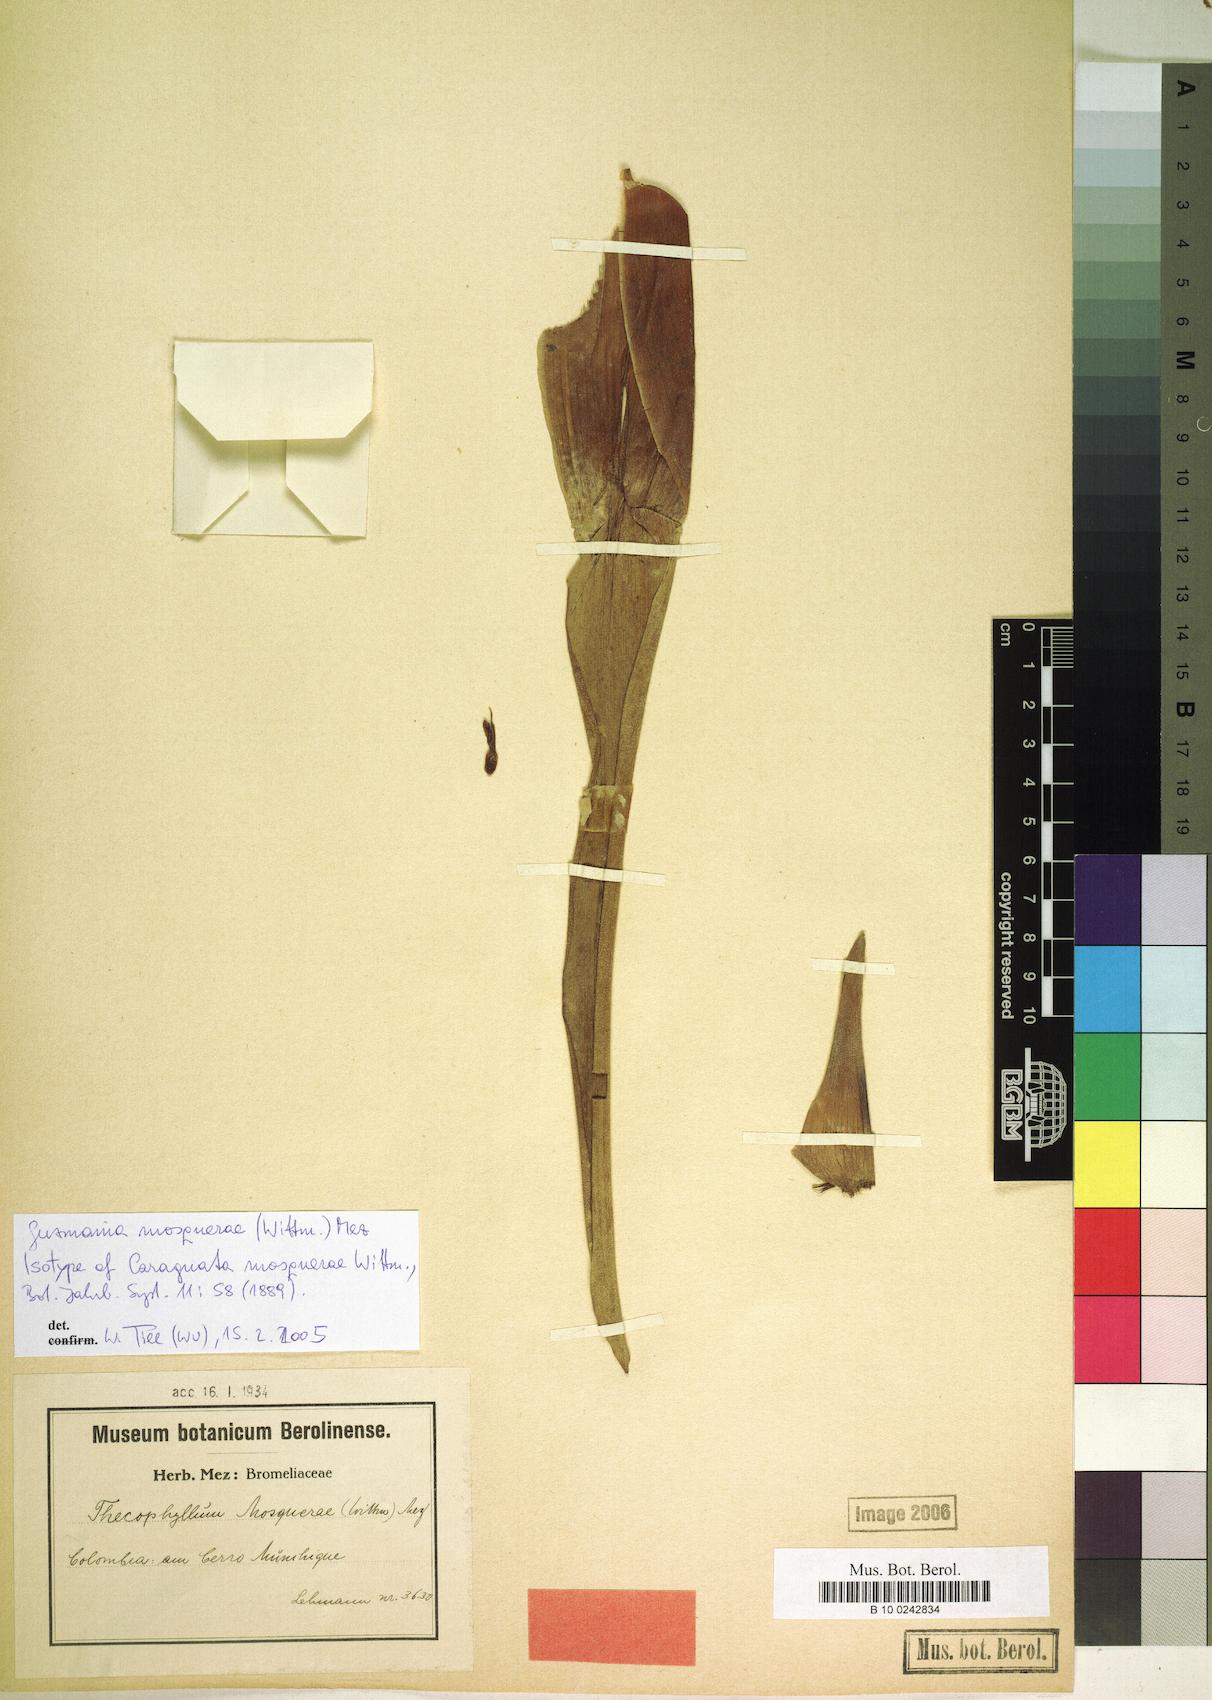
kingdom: Plantae
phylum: Tracheophyta
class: Liliopsida
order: Poales
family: Bromeliaceae
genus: Guzmania
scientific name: Guzmania mosquerae
